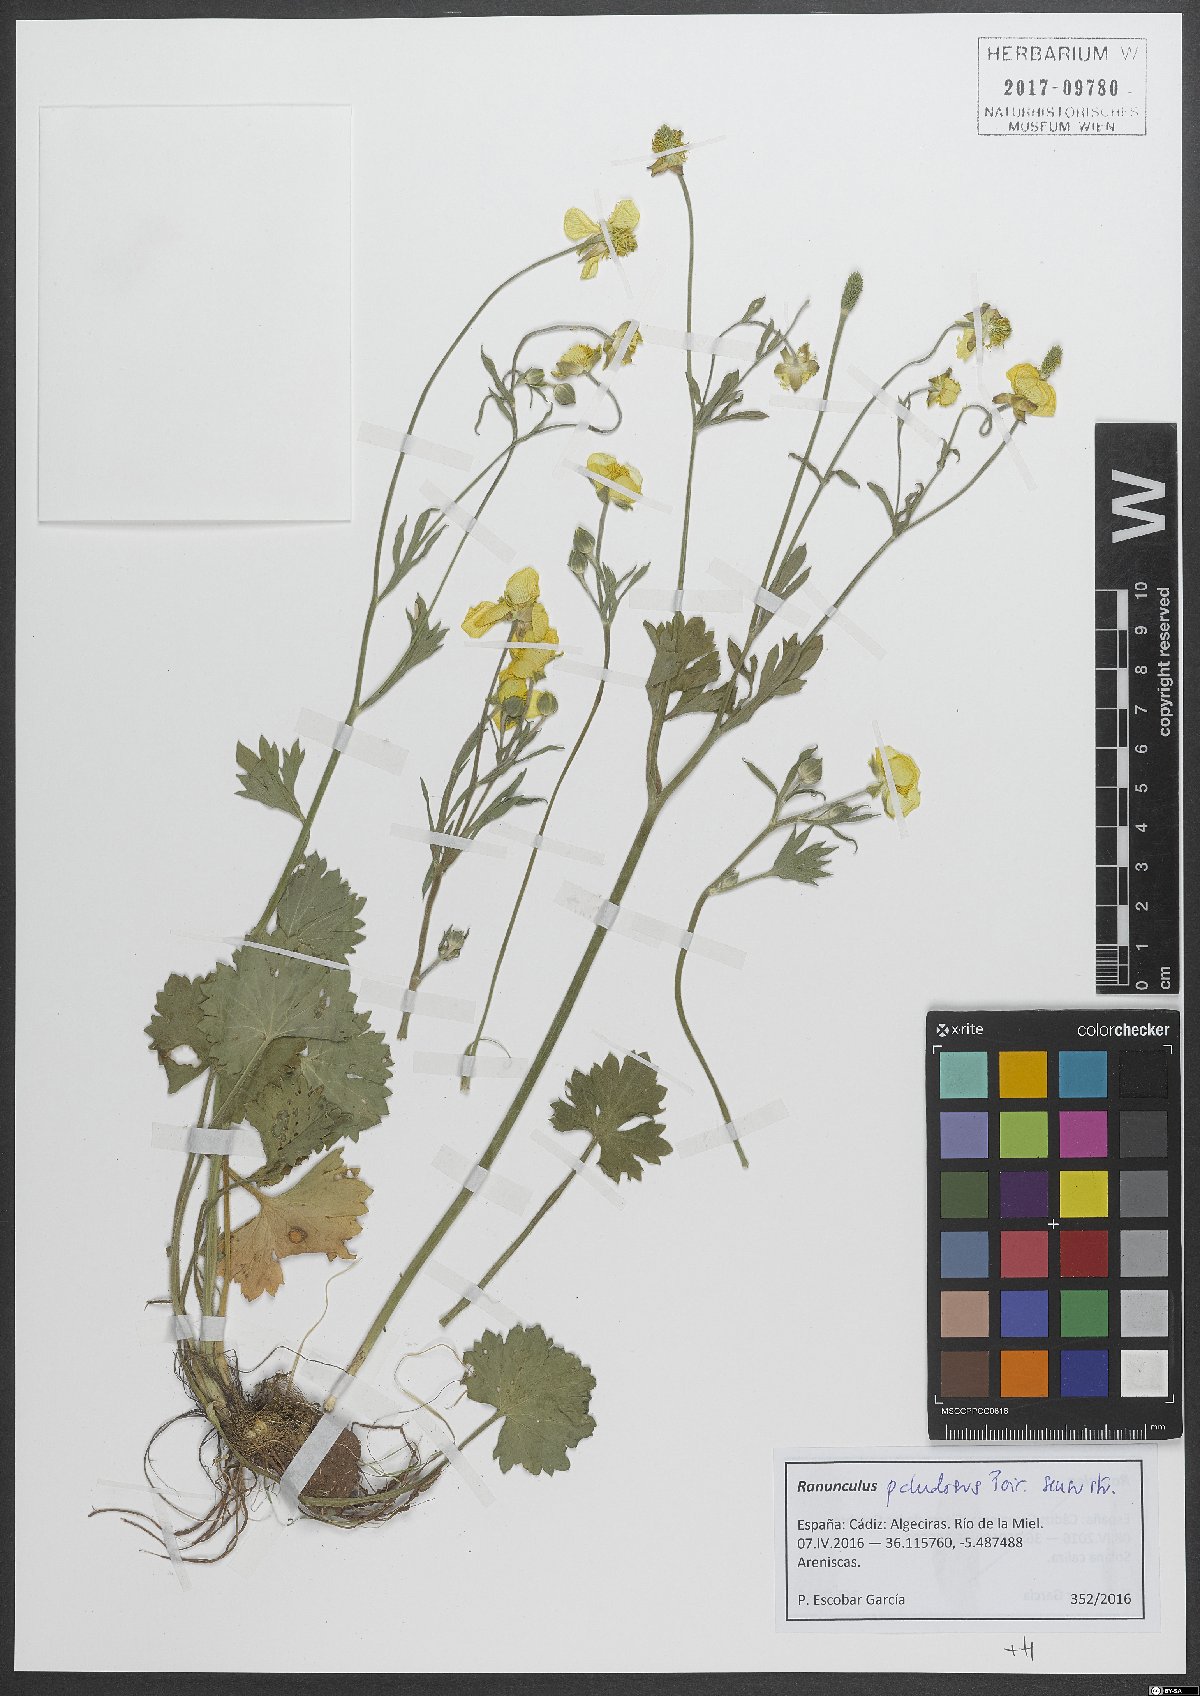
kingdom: Plantae
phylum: Tracheophyta
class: Magnoliopsida
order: Ranunculales
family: Ranunculaceae
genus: Ranunculus
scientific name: Ranunculus paludosus
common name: Jersey buttercup
